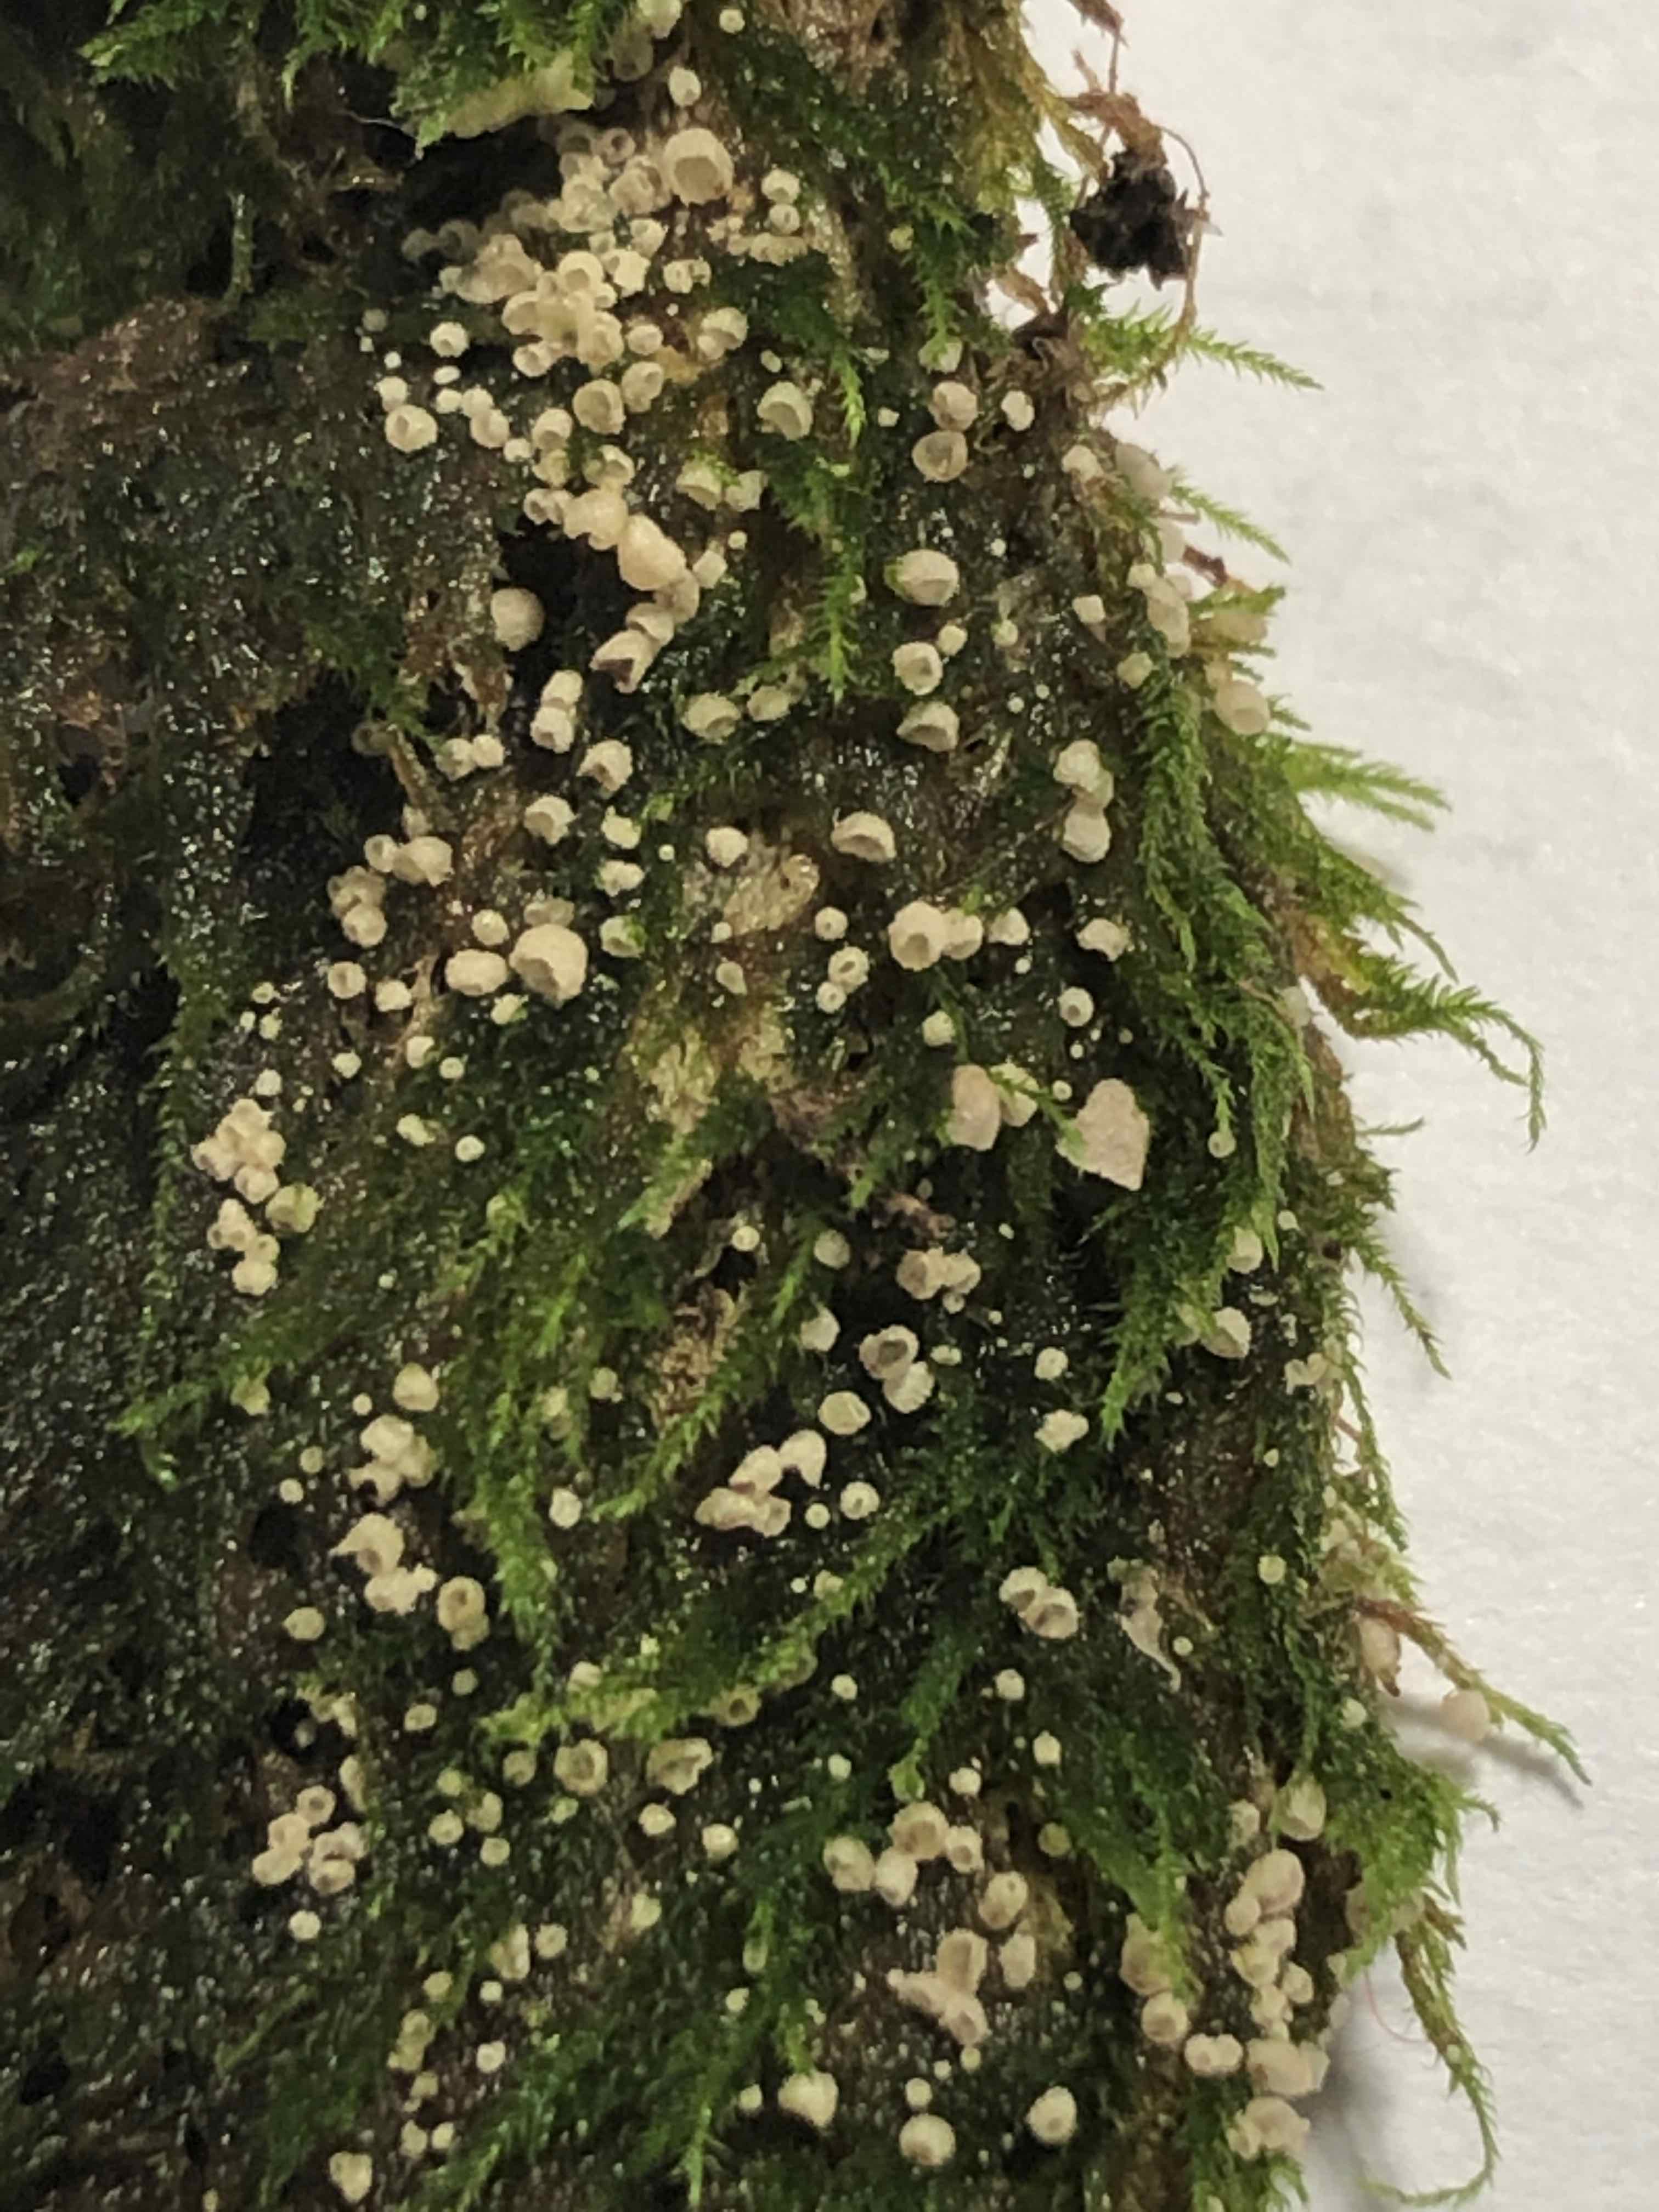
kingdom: Fungi
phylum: Basidiomycota
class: Agaricomycetes
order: Agaricales
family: Chromocyphellaceae
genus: Chromocyphella
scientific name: Chromocyphella muscicola
